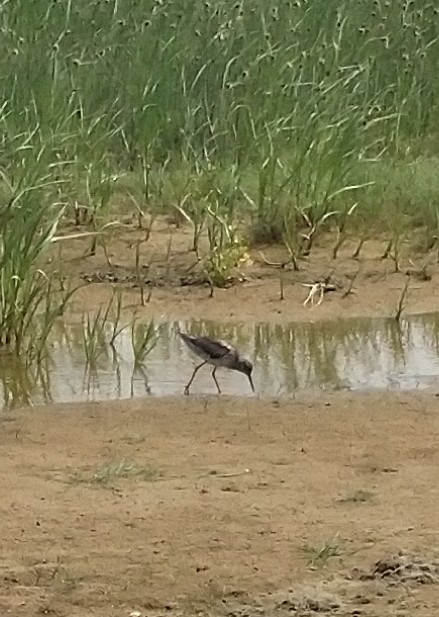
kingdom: Animalia
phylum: Chordata
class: Aves
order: Charadriiformes
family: Scolopacidae
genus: Tringa
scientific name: Tringa totanus
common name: Rødben
